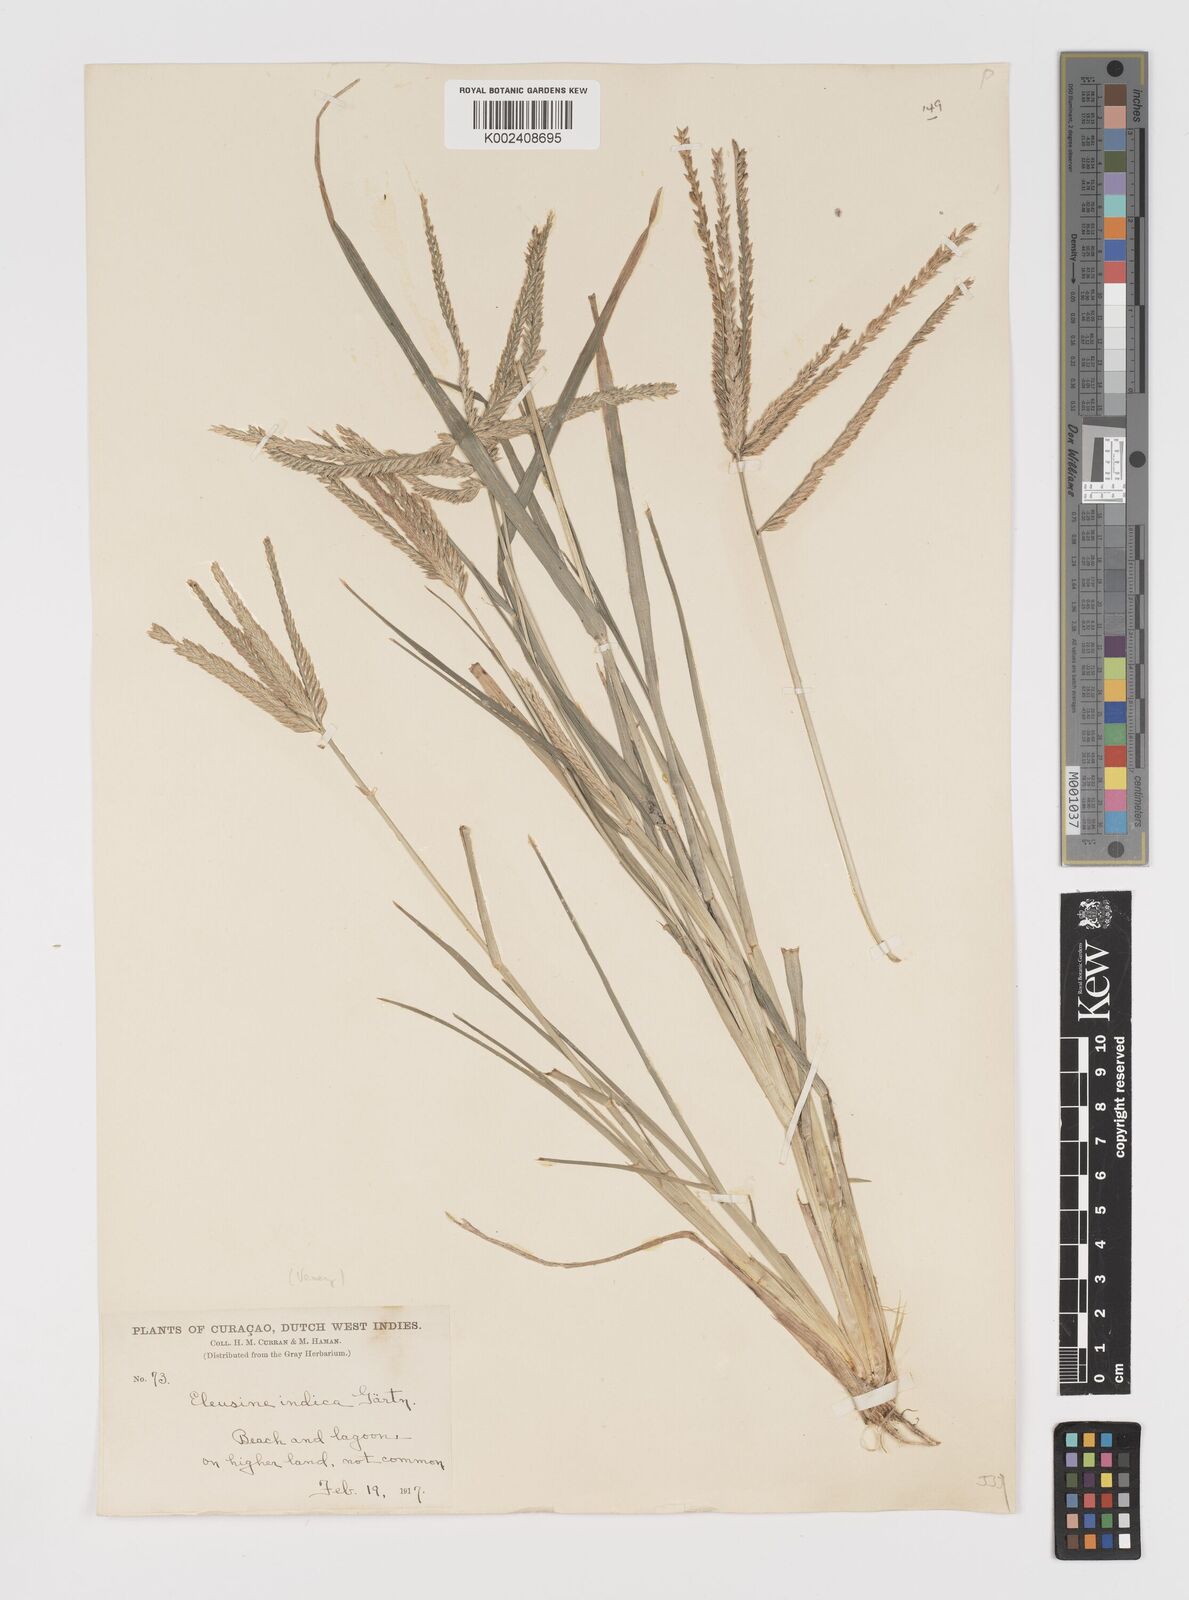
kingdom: Plantae
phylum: Tracheophyta
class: Liliopsida
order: Poales
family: Poaceae
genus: Eleusine
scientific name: Eleusine indica
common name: Yard-grass
